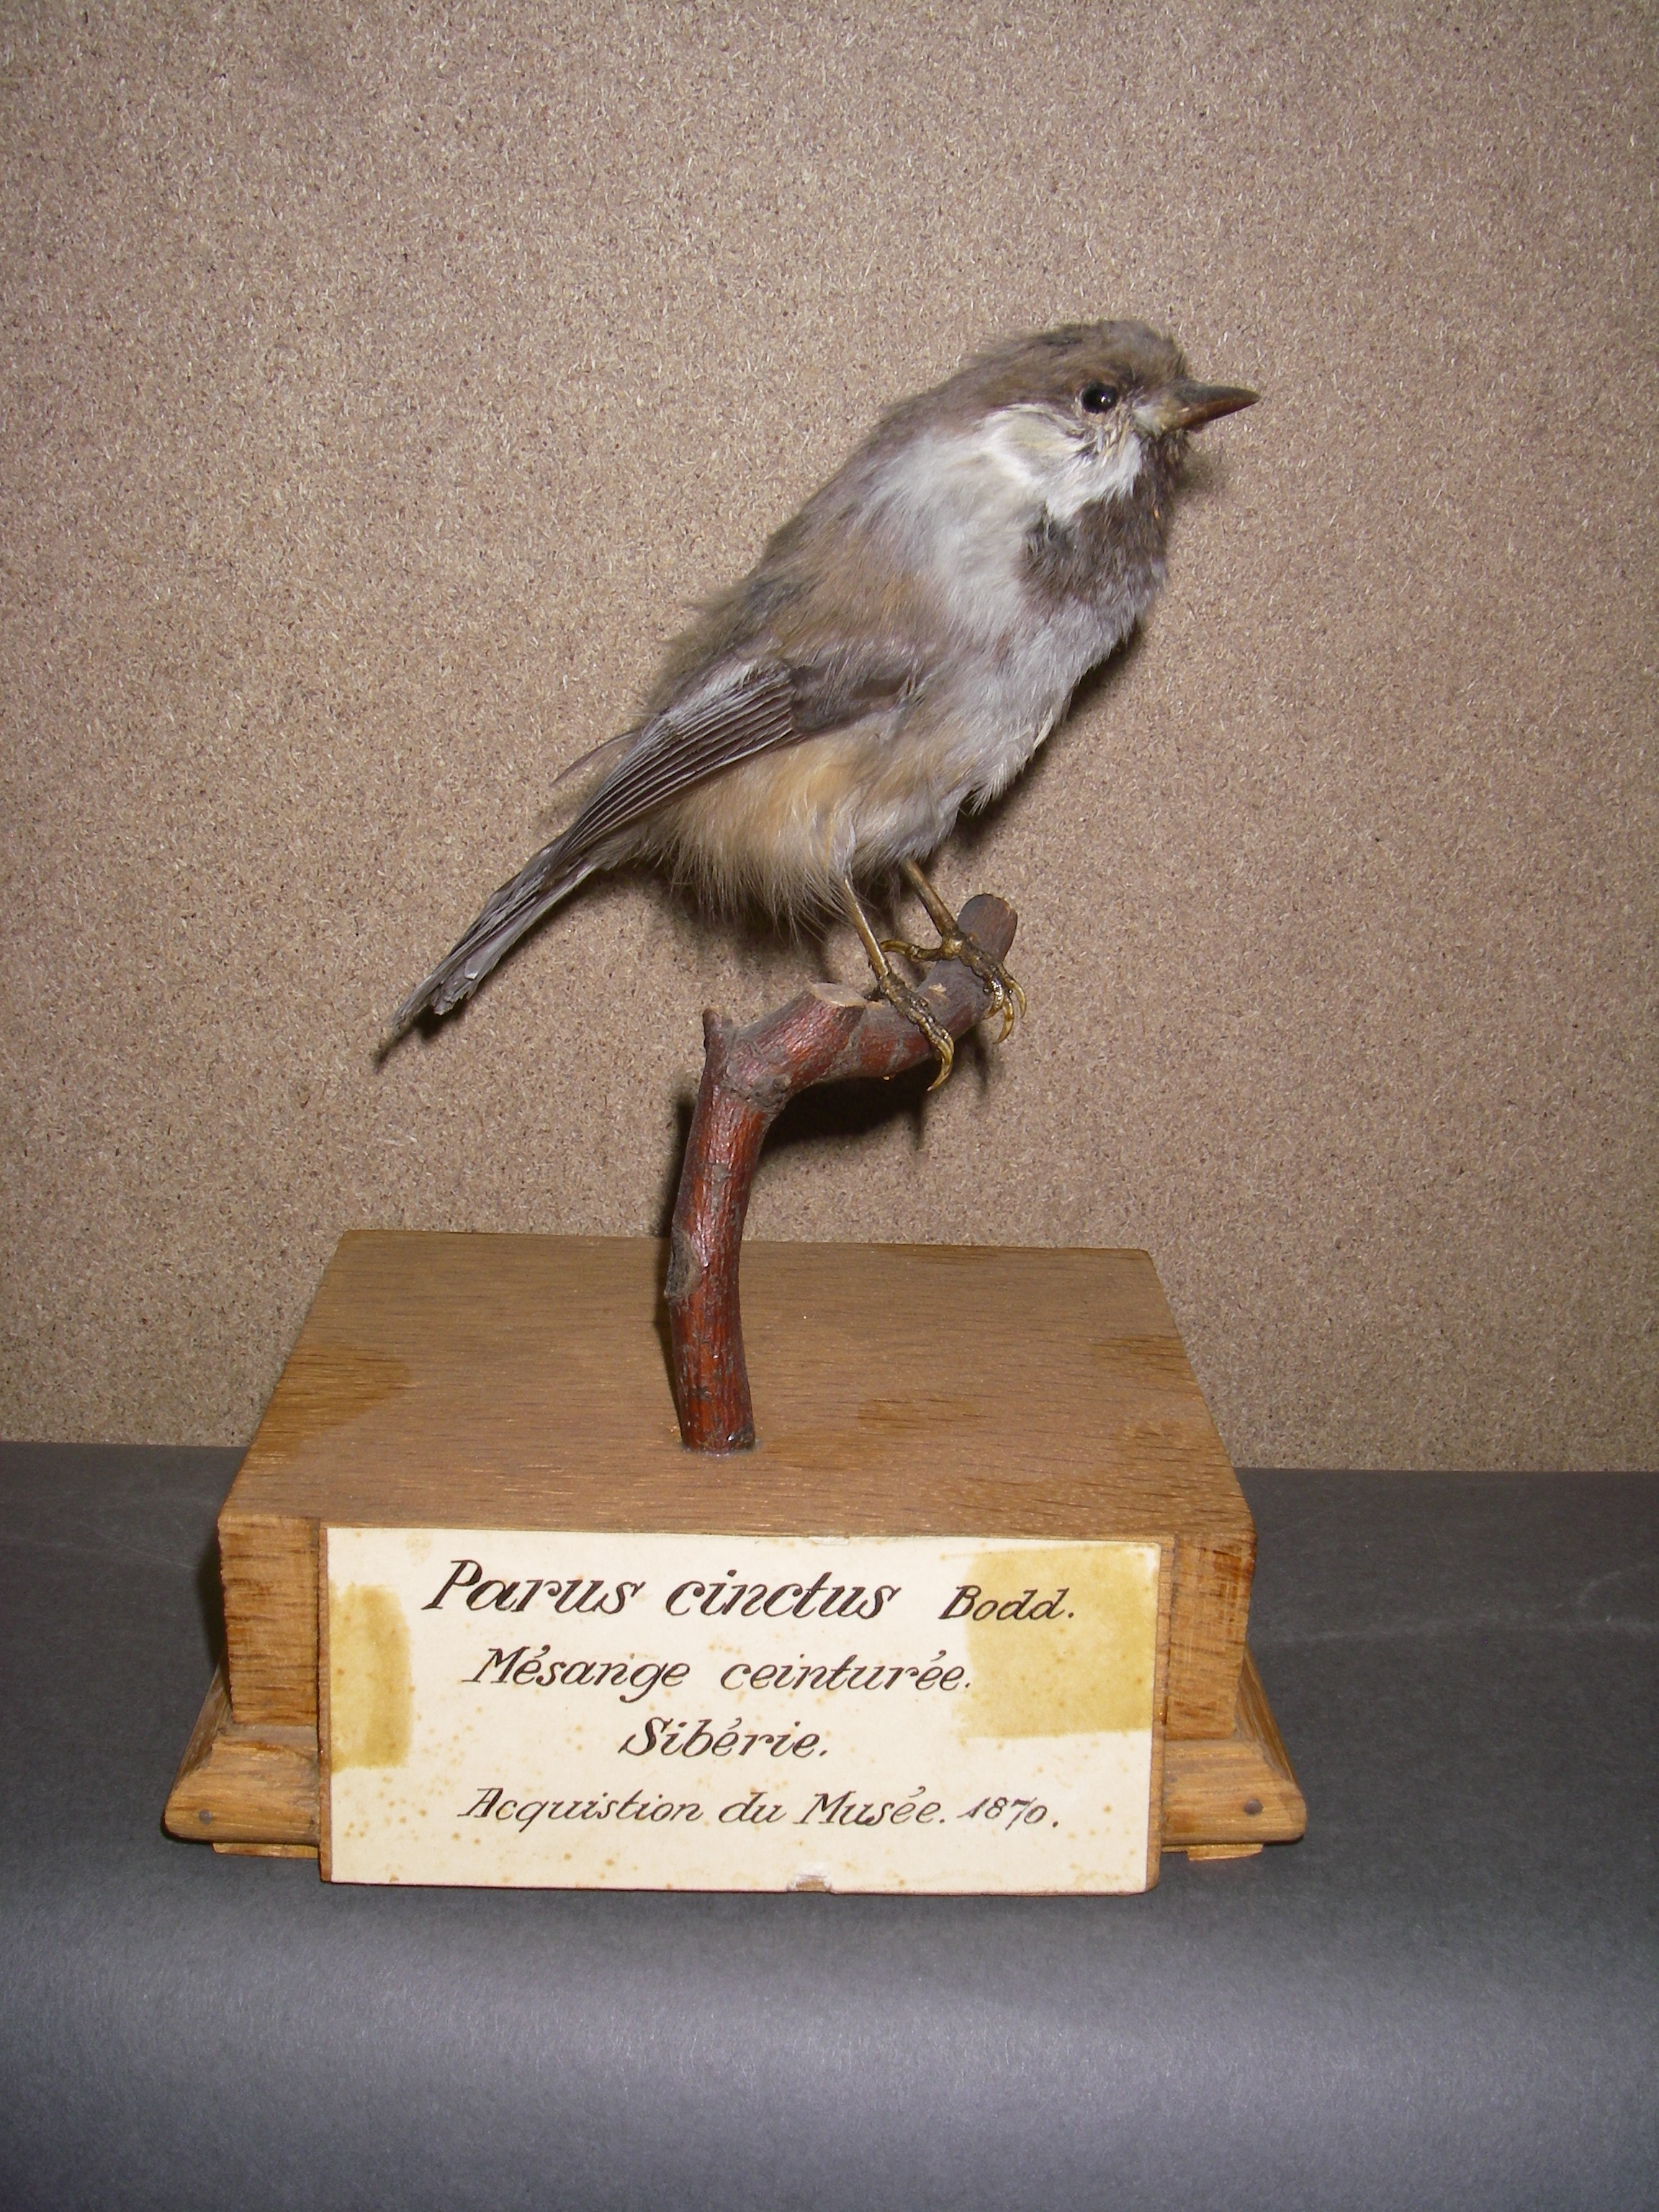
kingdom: Animalia
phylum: Chordata
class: Aves
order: Passeriformes
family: Paridae
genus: Poecile
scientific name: Poecile cinctus
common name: Gray-headed chickadee
